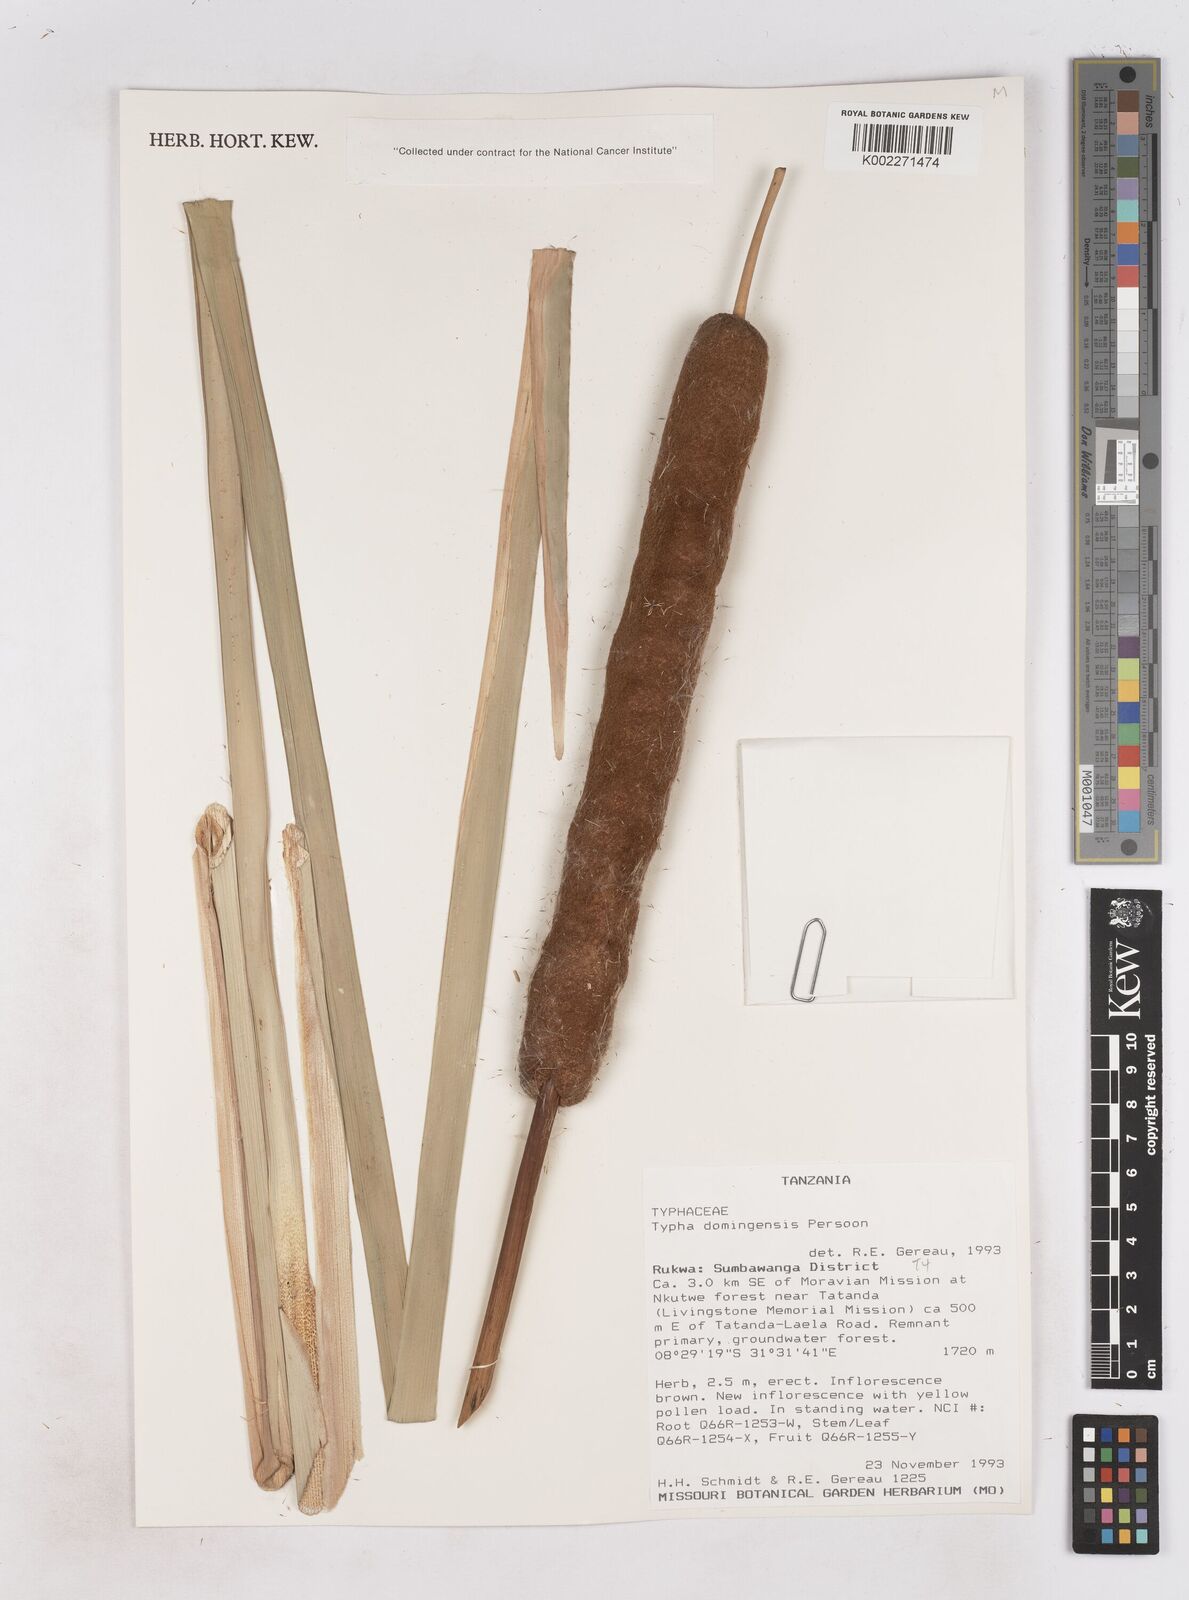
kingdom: Plantae
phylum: Tracheophyta
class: Liliopsida
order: Poales
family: Typhaceae
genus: Typha
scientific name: Typha domingensis
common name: Southern cattail
